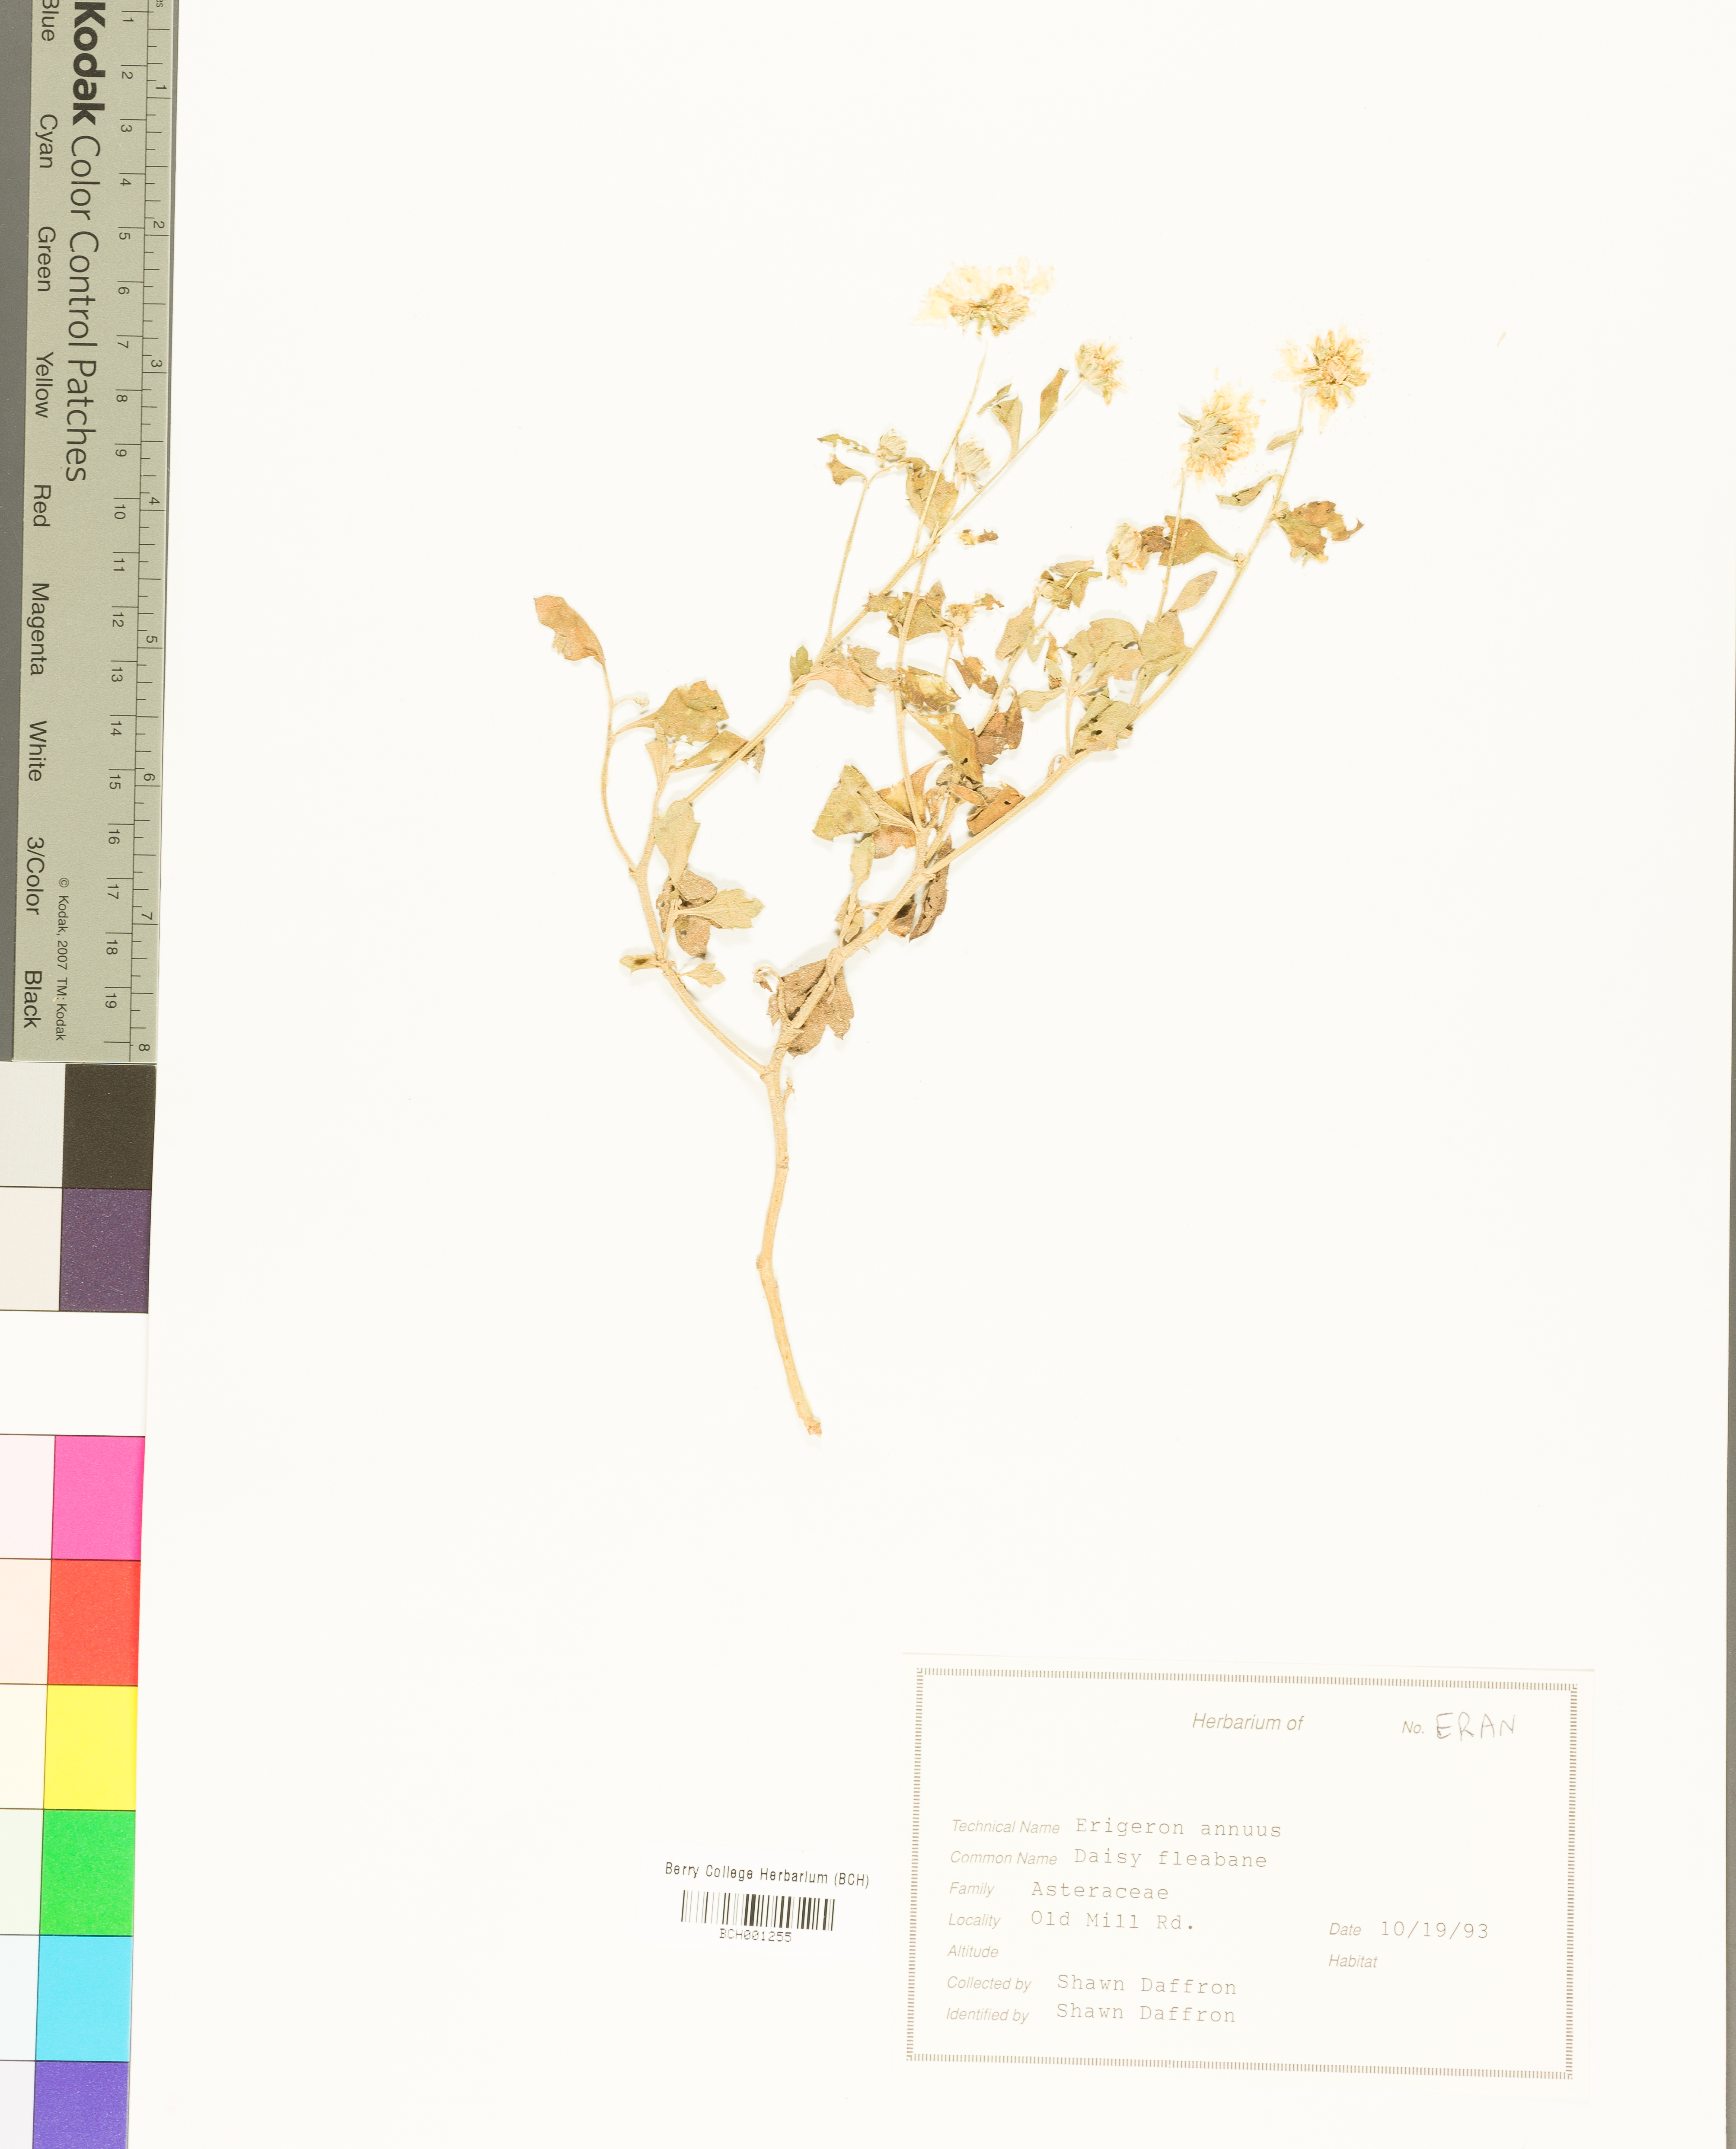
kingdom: Plantae
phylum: Tracheophyta
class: Magnoliopsida
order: Asterales
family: Asteraceae
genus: Erigeron
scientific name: Erigeron annuus
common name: Tall fleabane
